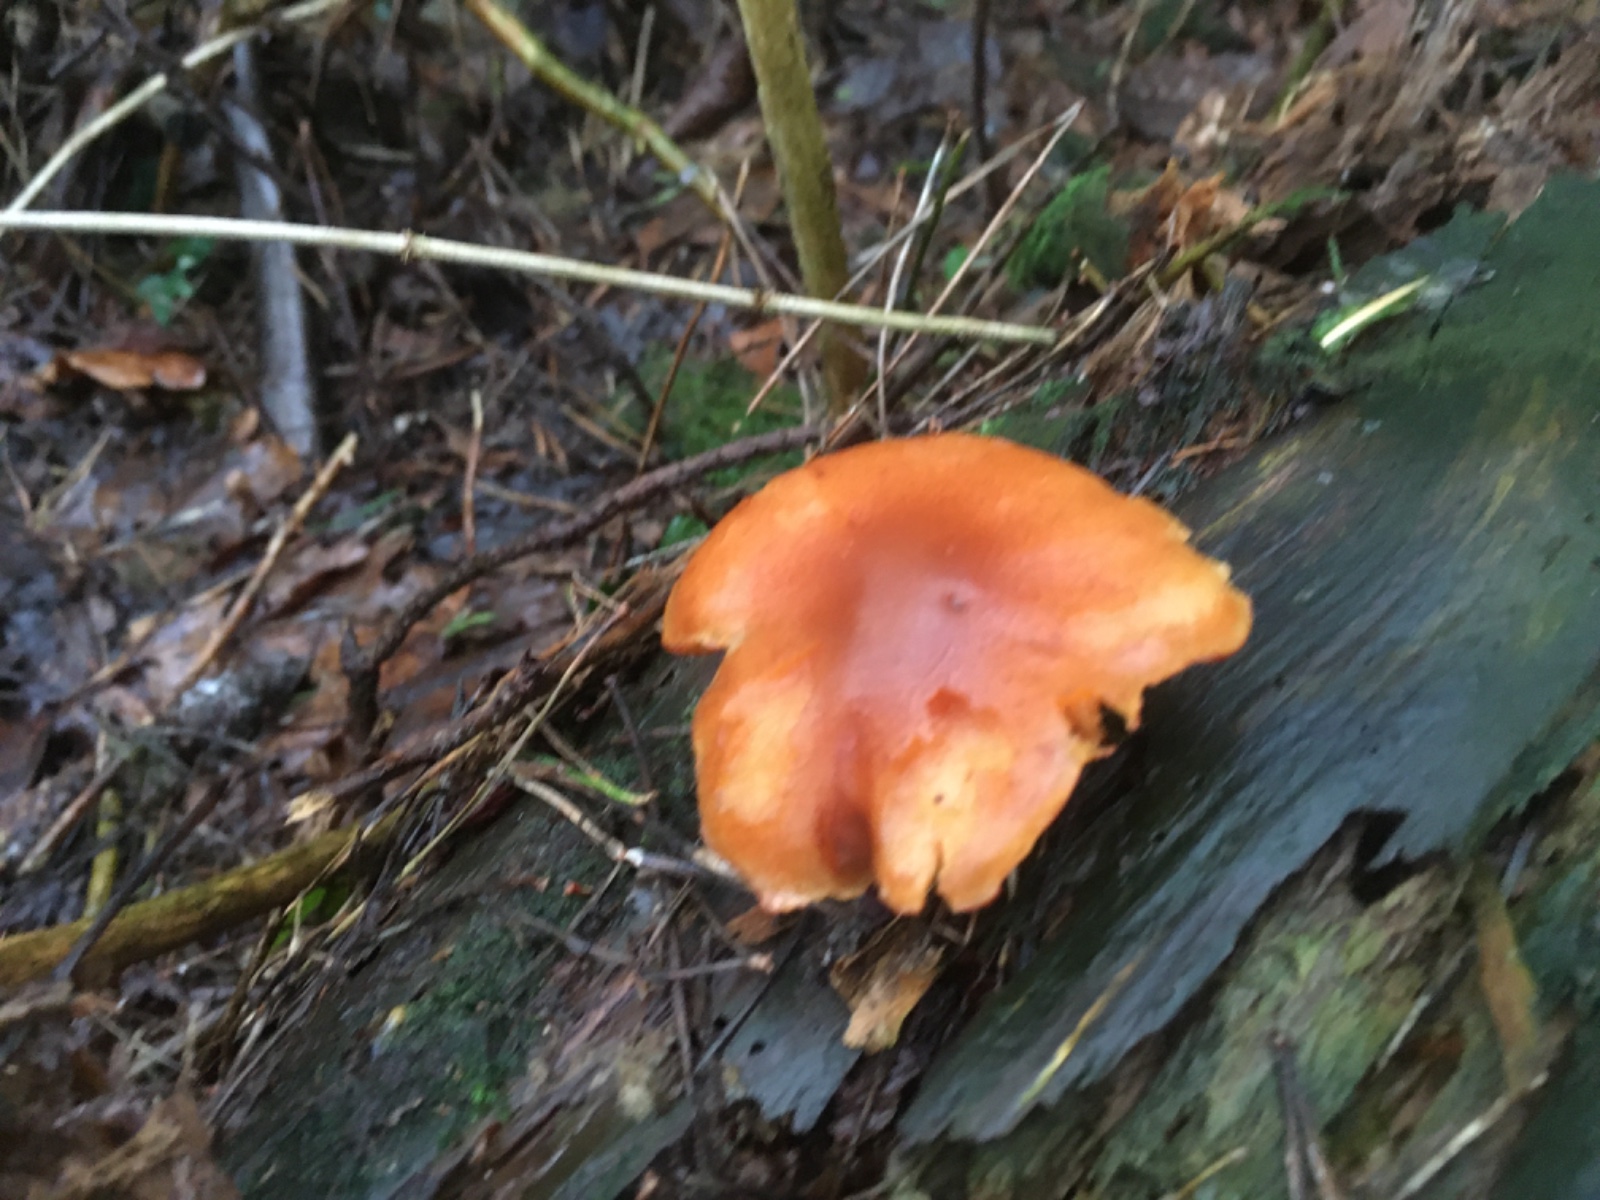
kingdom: Fungi
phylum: Basidiomycota
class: Agaricomycetes
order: Agaricales
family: Hymenogastraceae
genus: Gymnopilus
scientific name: Gymnopilus penetrans
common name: plettet flammehat
